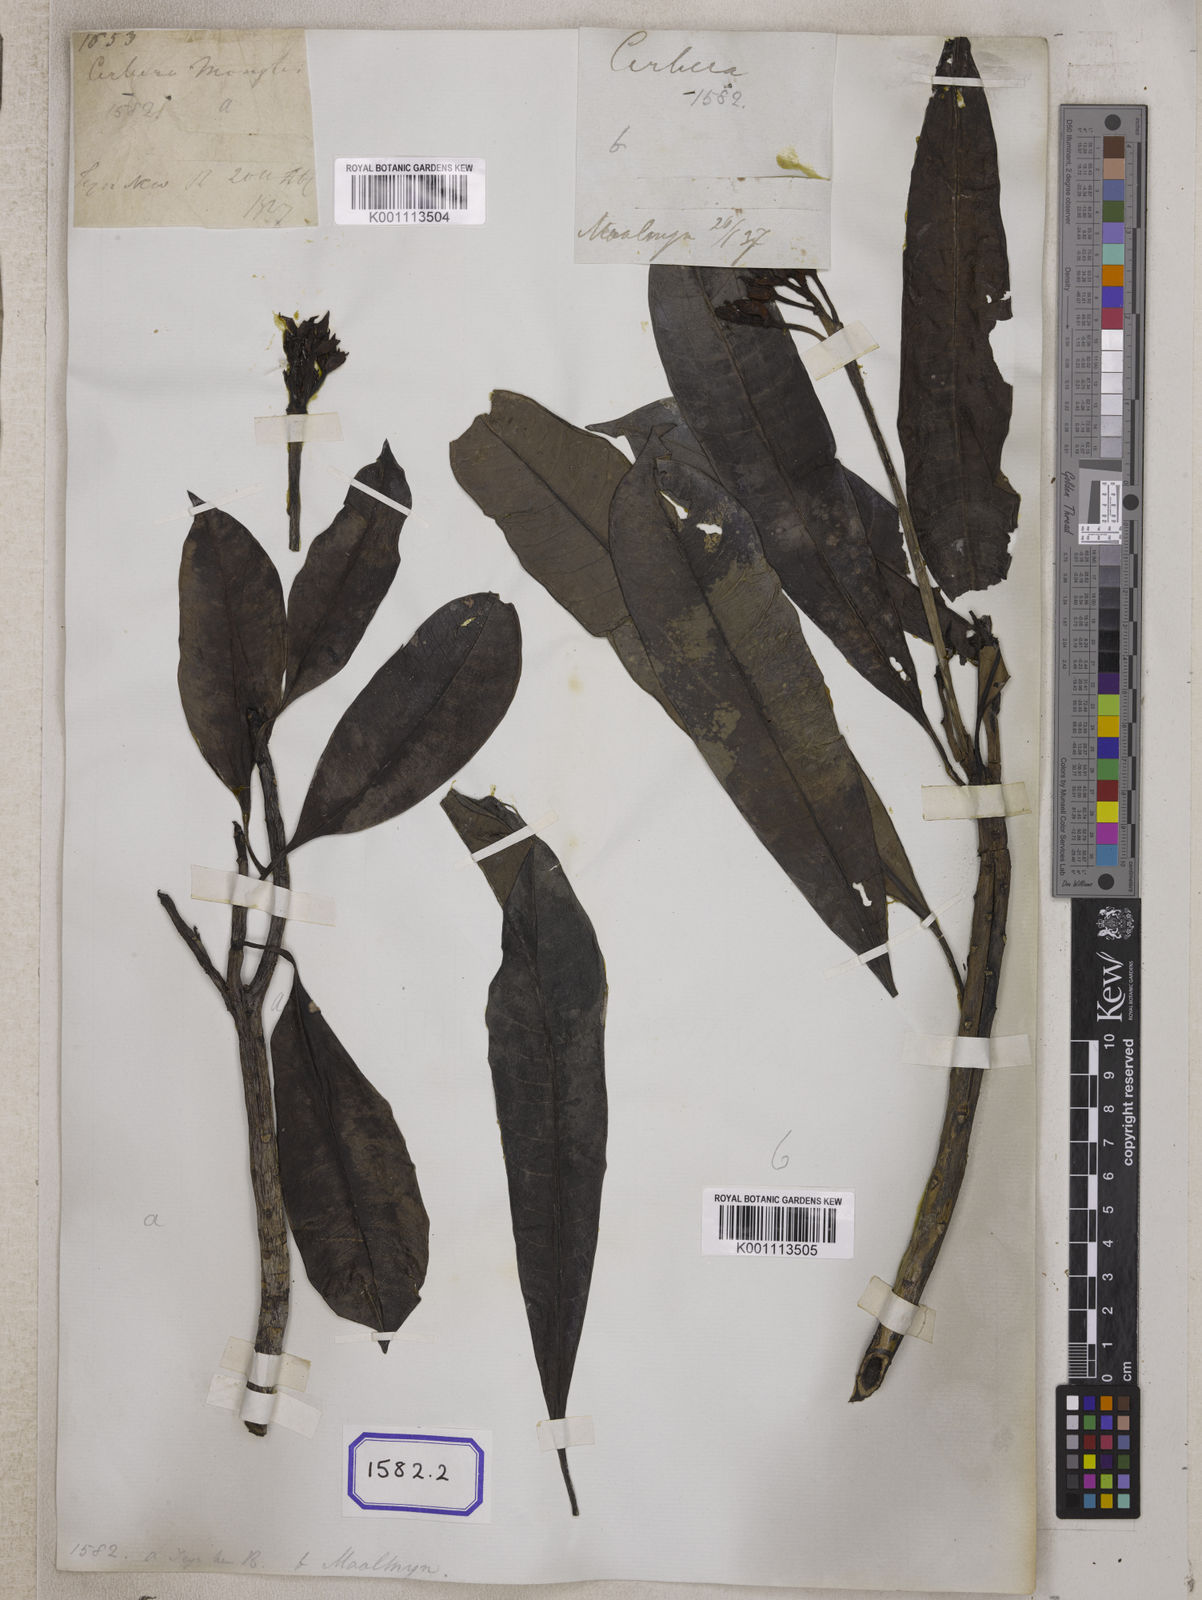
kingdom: Plantae
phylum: Tracheophyta
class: Magnoliopsida
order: Gentianales
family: Apocynaceae
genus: Cerbera
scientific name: Cerbera manghas
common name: Reva
